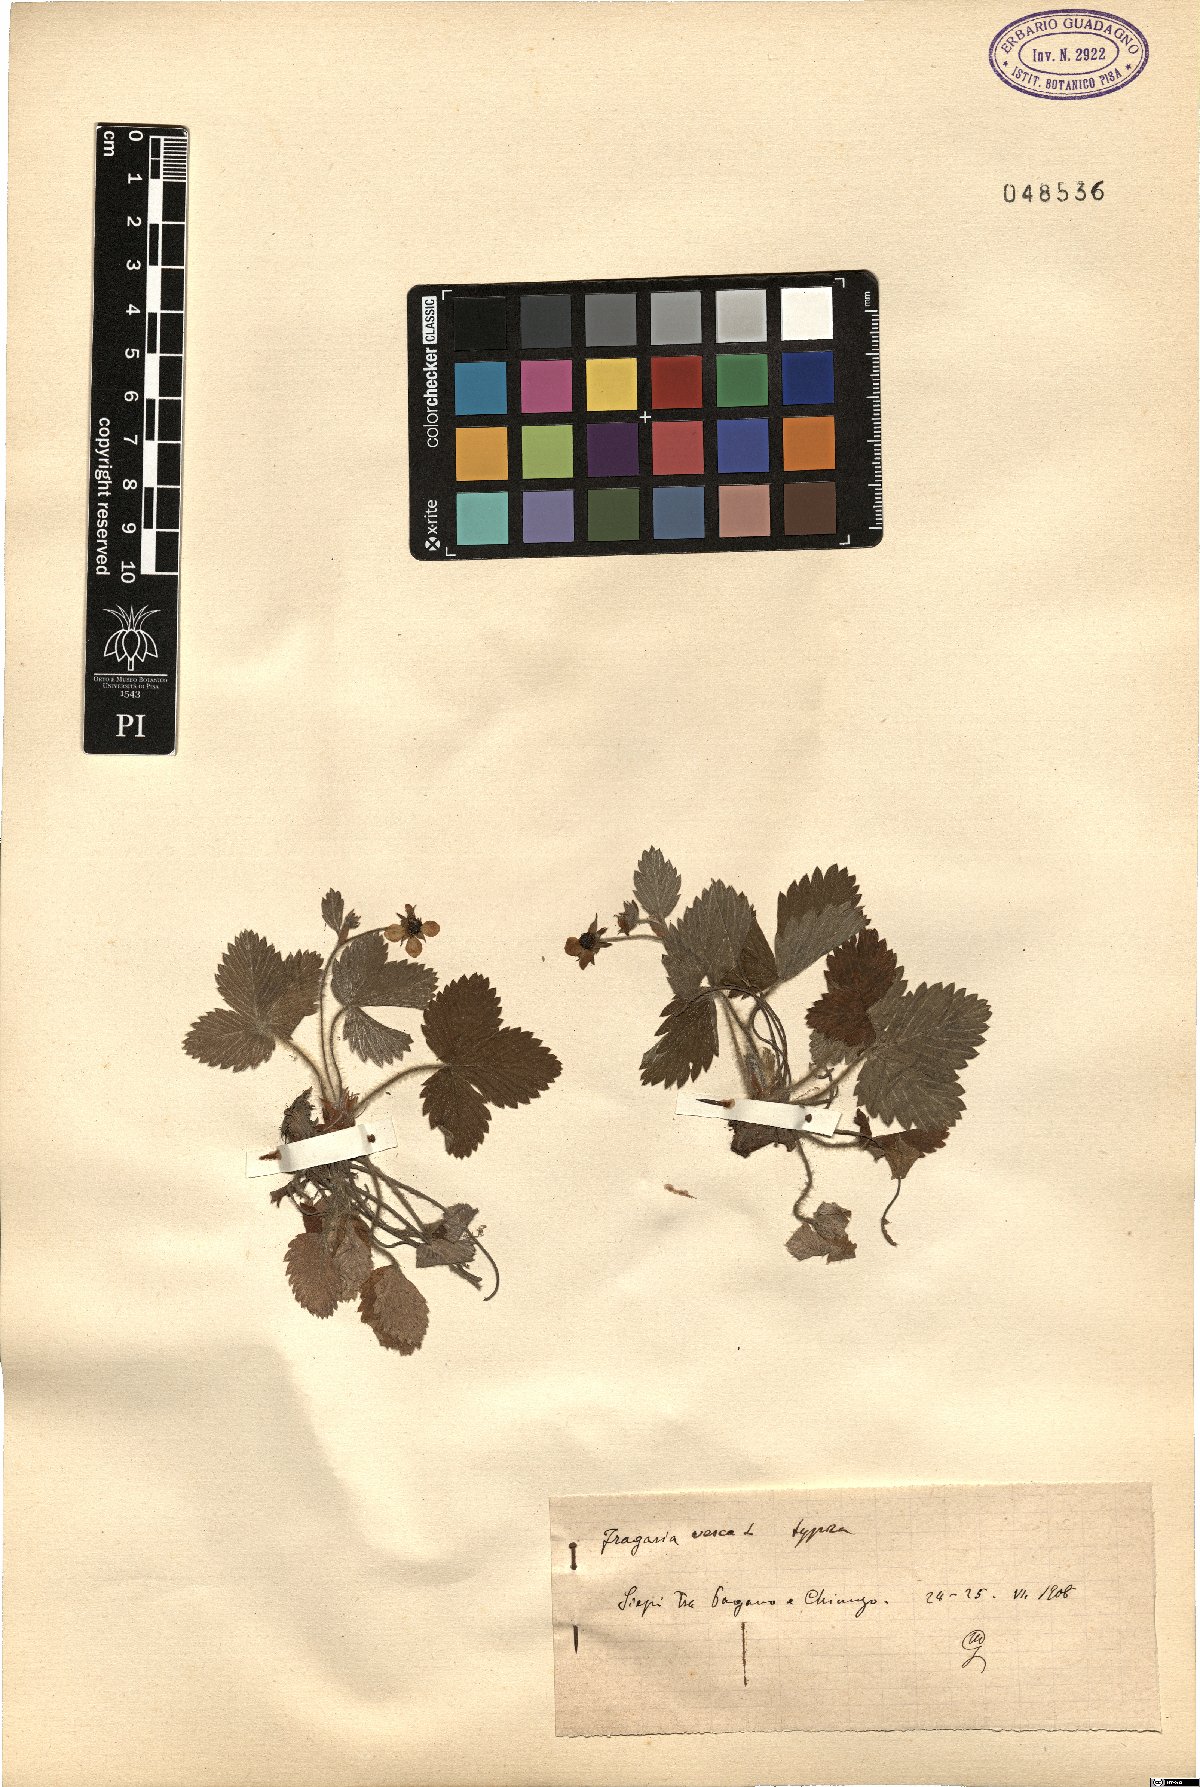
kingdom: Plantae
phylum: Tracheophyta
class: Magnoliopsida
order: Rosales
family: Rosaceae
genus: Fragaria
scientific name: Fragaria vesca
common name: Wild strawberry
